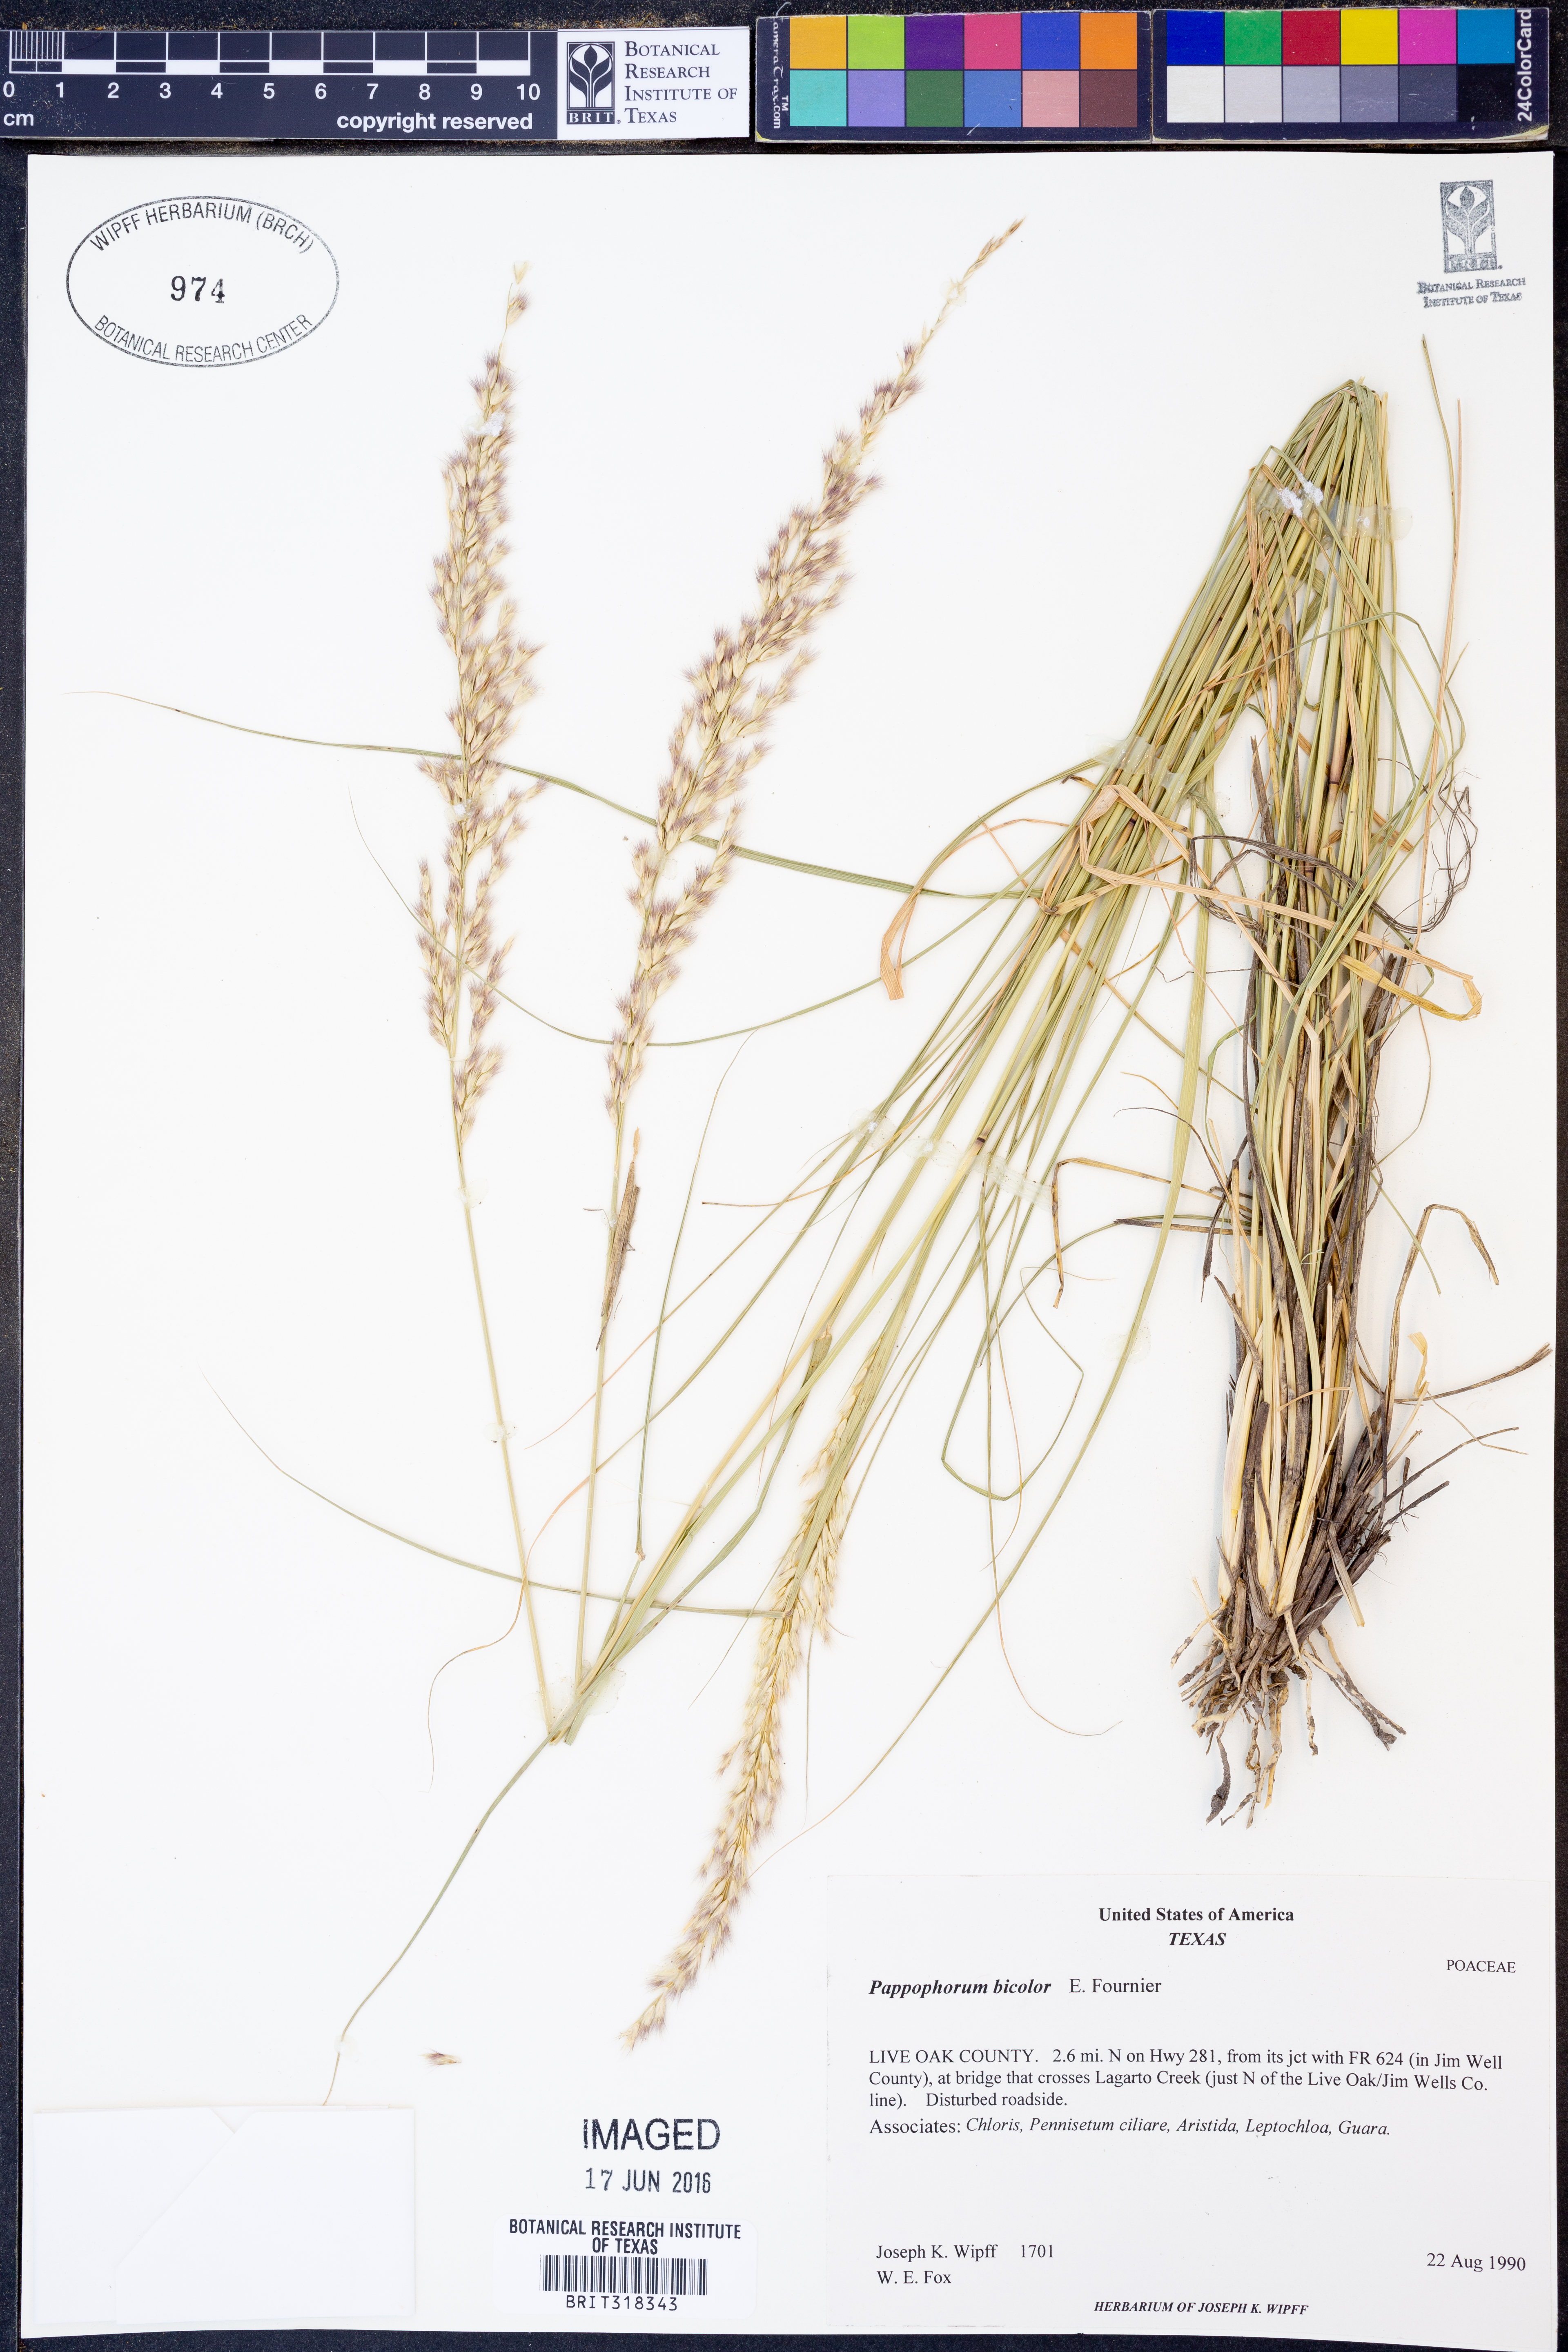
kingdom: Plantae
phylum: Tracheophyta
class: Liliopsida
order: Poales
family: Poaceae
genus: Pappophorum
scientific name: Pappophorum bicolor
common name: Pink pappus grass
